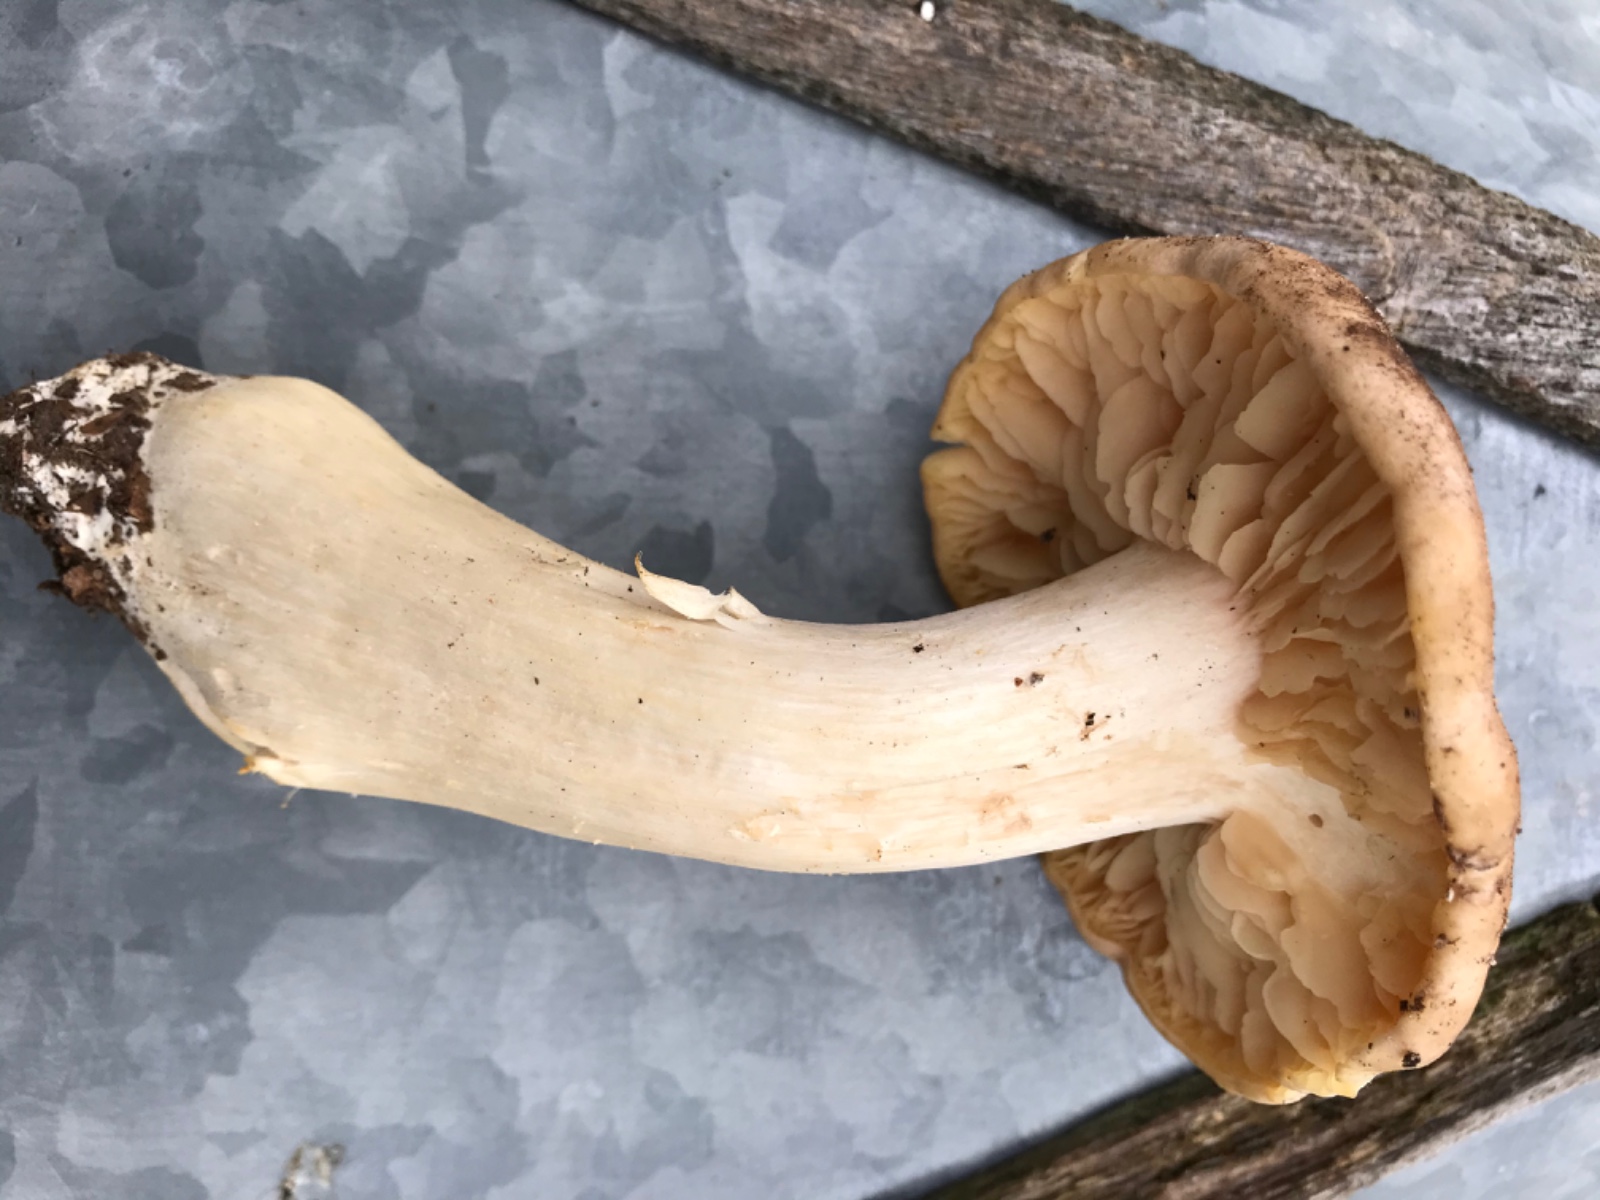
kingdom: Fungi
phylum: Basidiomycota
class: Agaricomycetes
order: Agaricales
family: Entolomataceae
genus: Entoloma
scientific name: Entoloma sinuatum
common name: giftig rødblad
